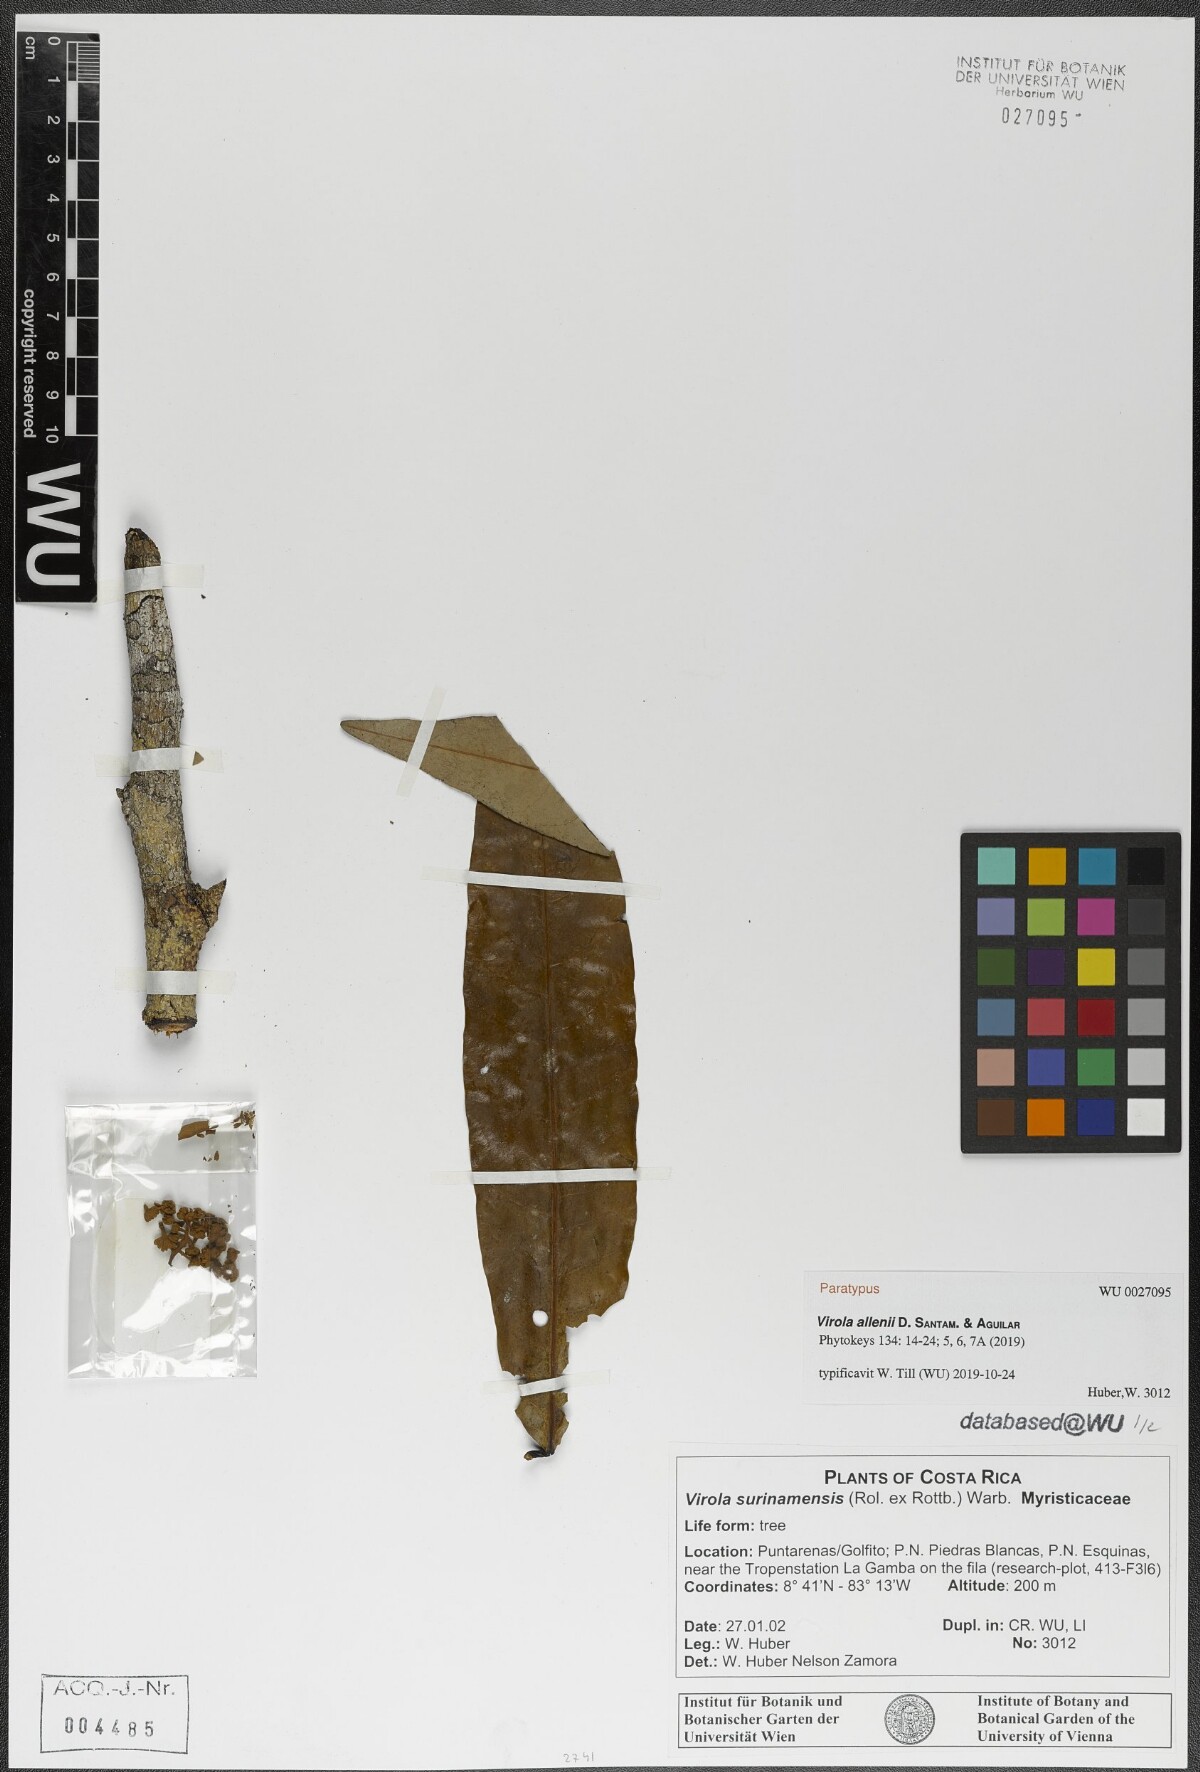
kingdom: Plantae
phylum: Tracheophyta
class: Magnoliopsida
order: Magnoliales
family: Myristicaceae
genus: Virola
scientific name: Virola allenii
